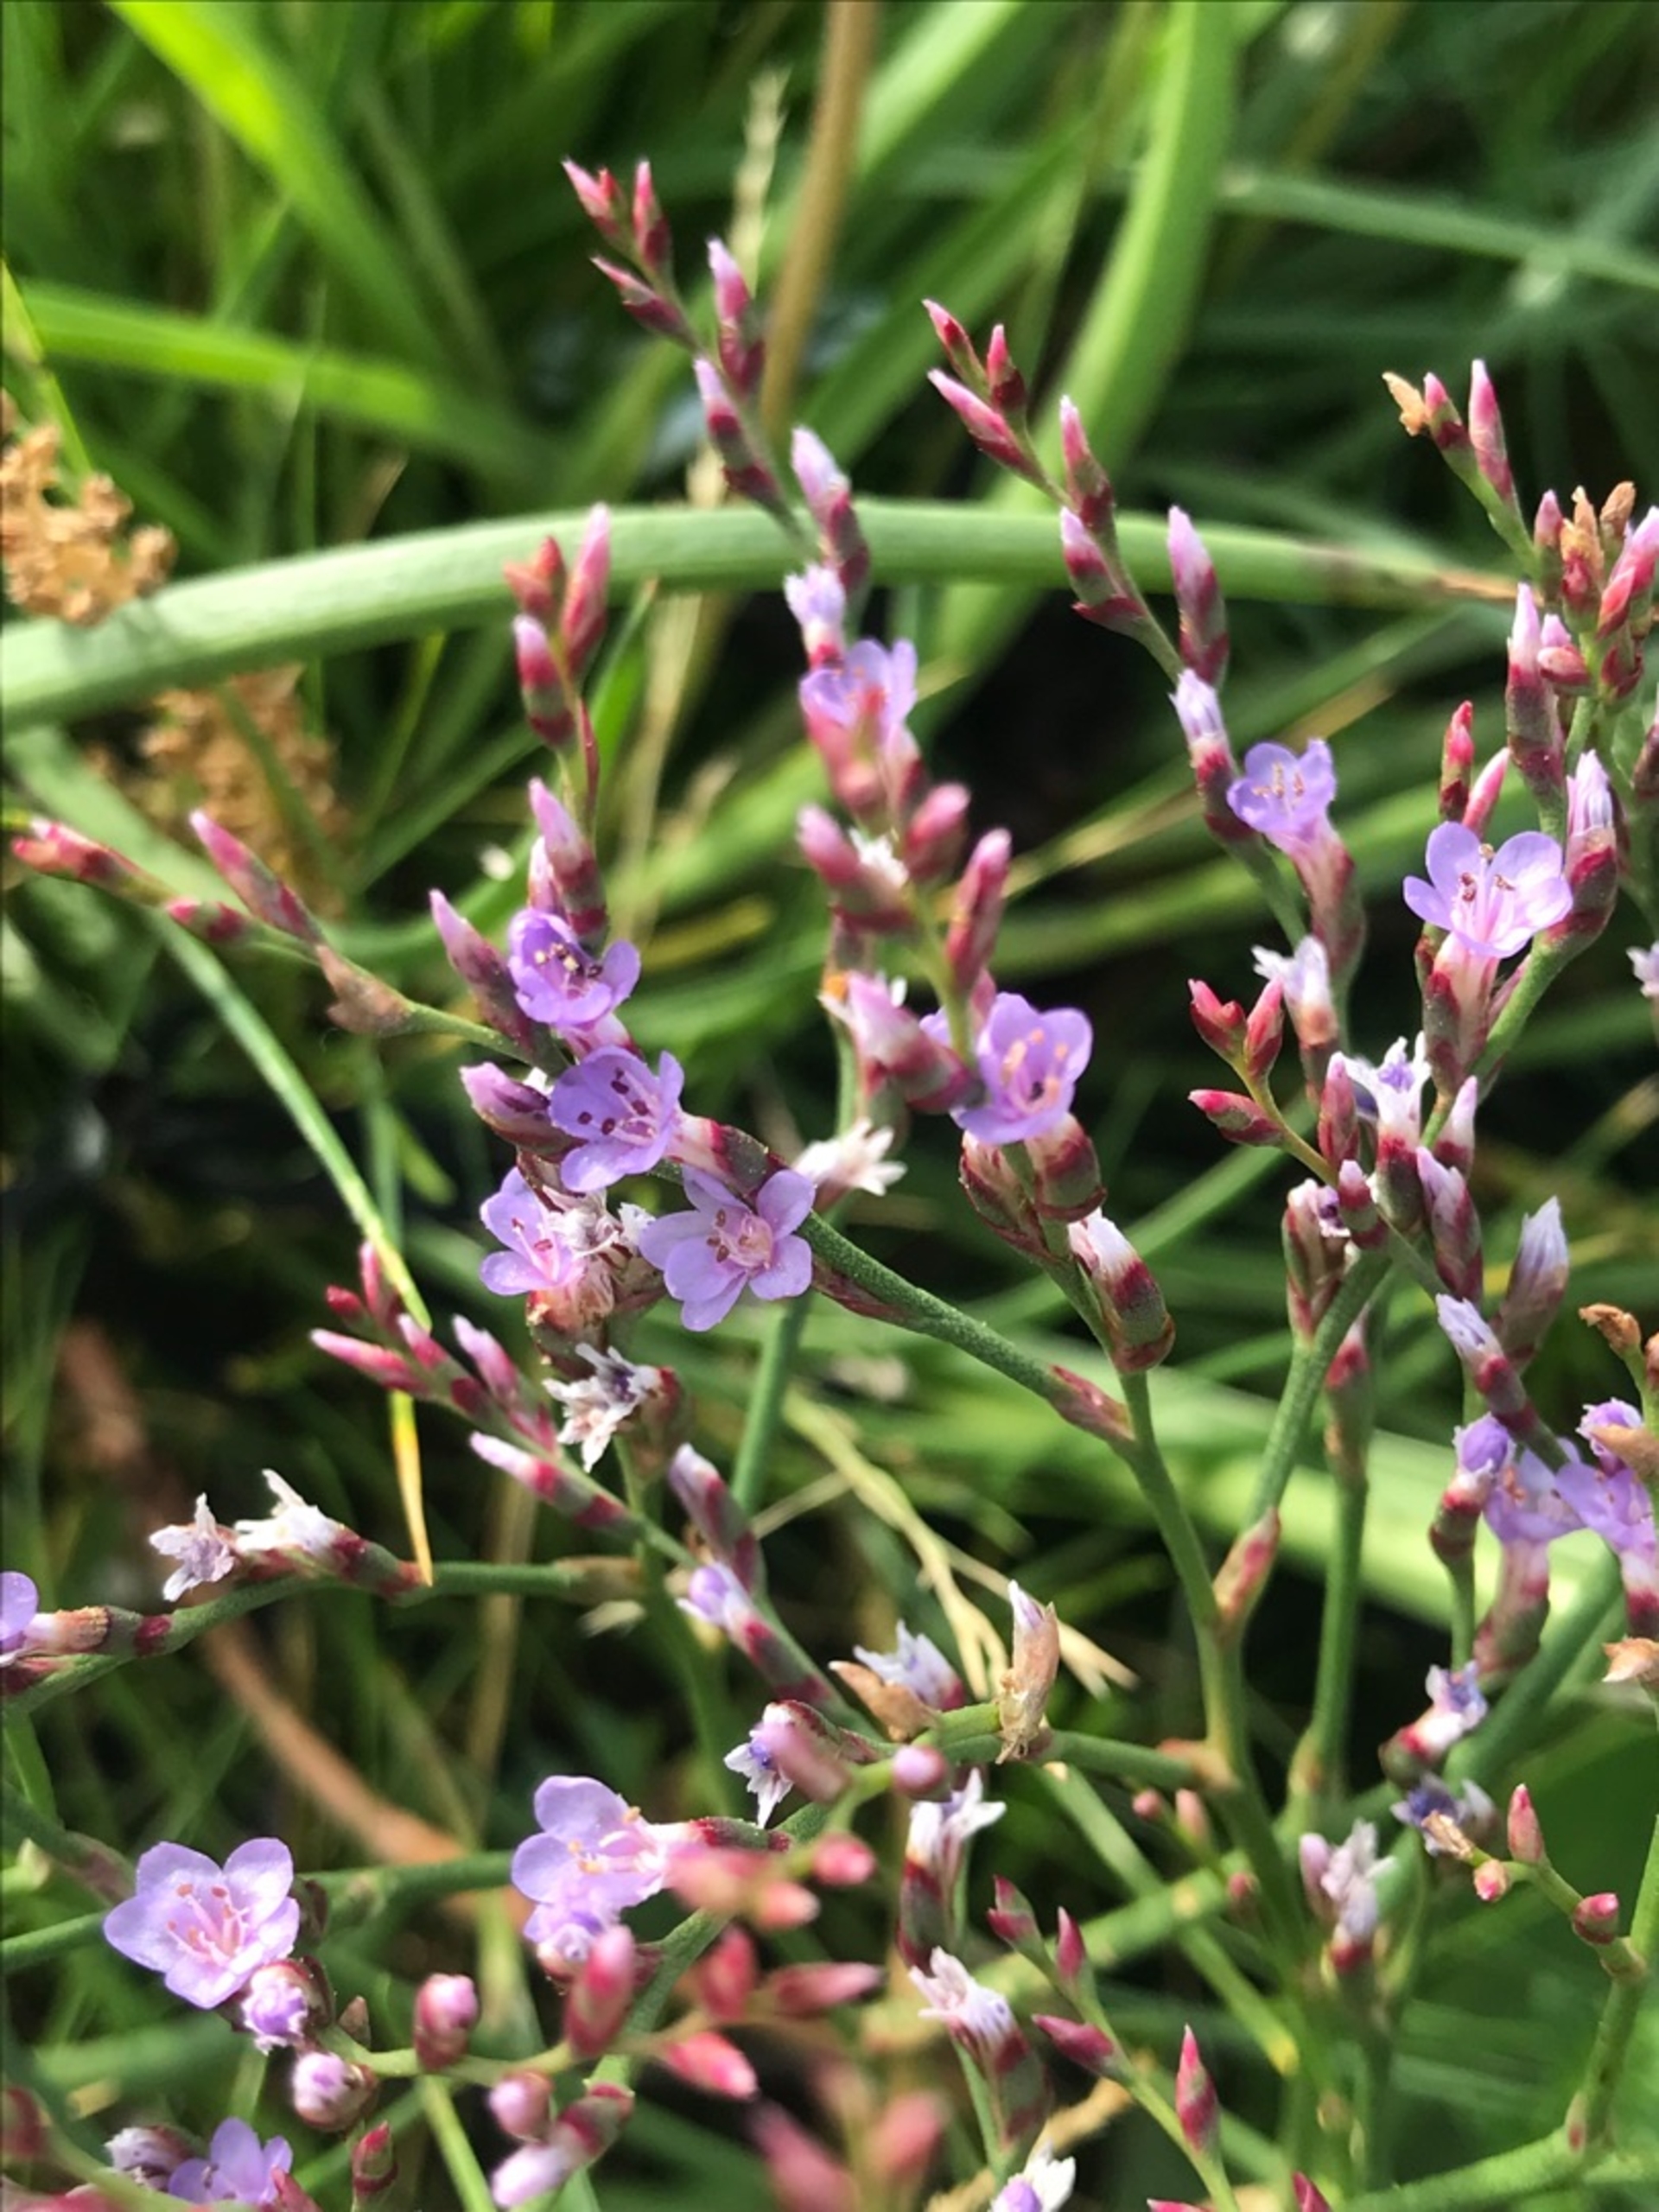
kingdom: Plantae
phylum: Tracheophyta
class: Magnoliopsida
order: Caryophyllales
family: Plumbaginaceae
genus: Limonium
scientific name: Limonium humile
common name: Lav hindebæger
